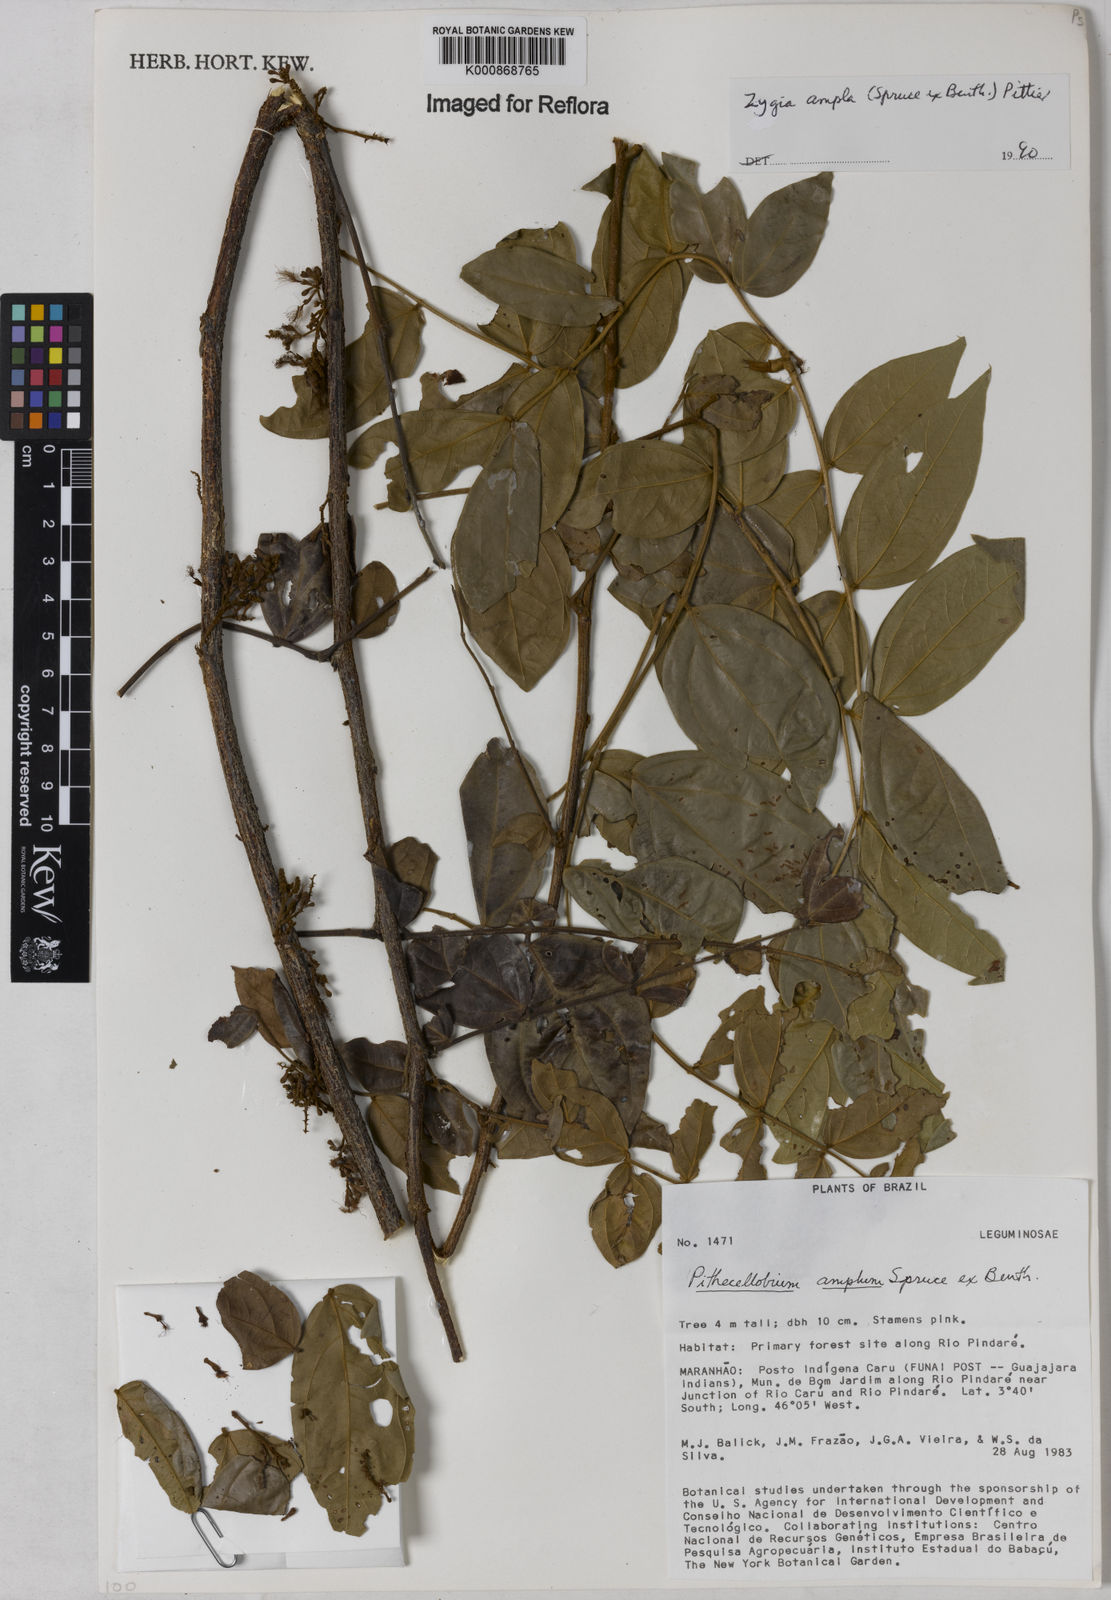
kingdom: Plantae
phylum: Tracheophyta
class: Magnoliopsida
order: Fabales
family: Fabaceae
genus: Zygia
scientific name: Zygia ampla
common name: Jarendeua de sapo
